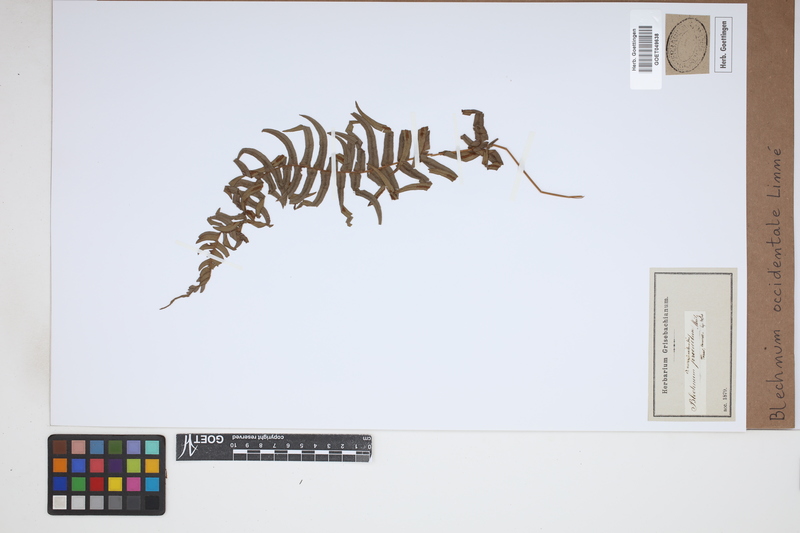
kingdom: Plantae
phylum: Tracheophyta
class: Polypodiopsida
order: Polypodiales
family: Blechnaceae
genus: Blechnum
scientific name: Blechnum occidentale
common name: Hammock fern
